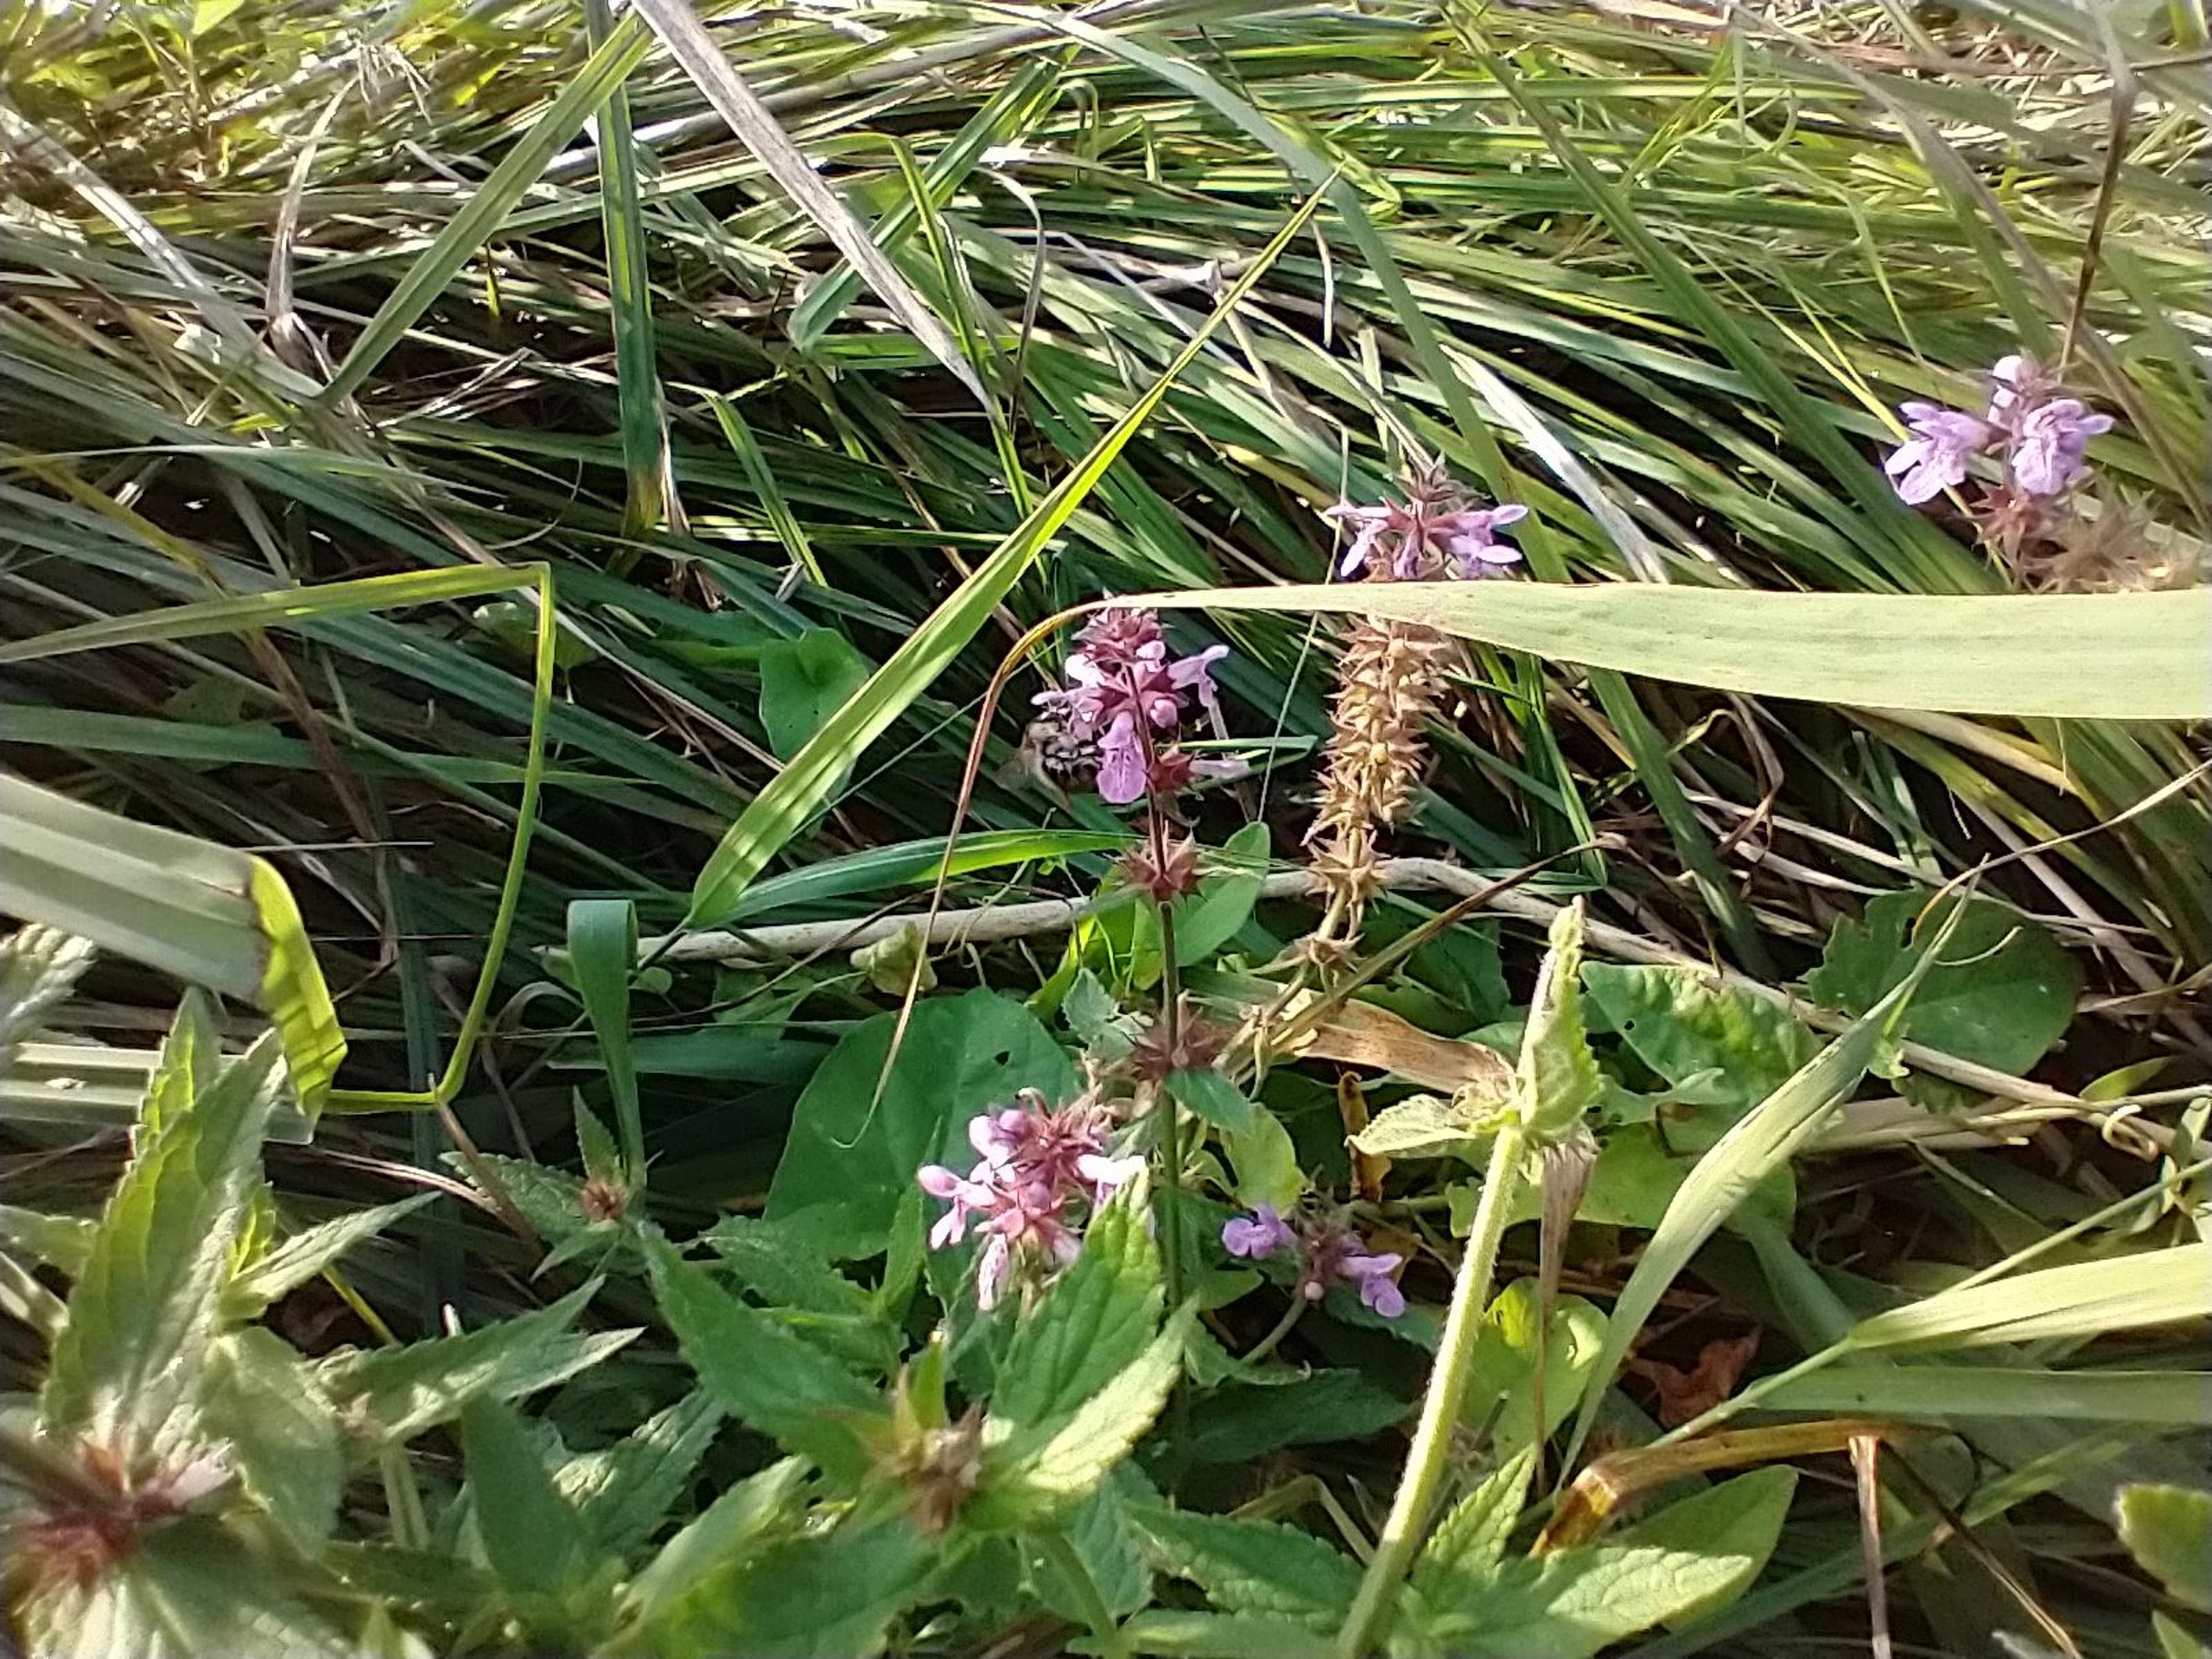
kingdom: Plantae
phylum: Tracheophyta
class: Magnoliopsida
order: Lamiales
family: Lamiaceae
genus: Stachys
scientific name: Stachys palustris
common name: Kær-galtetand
